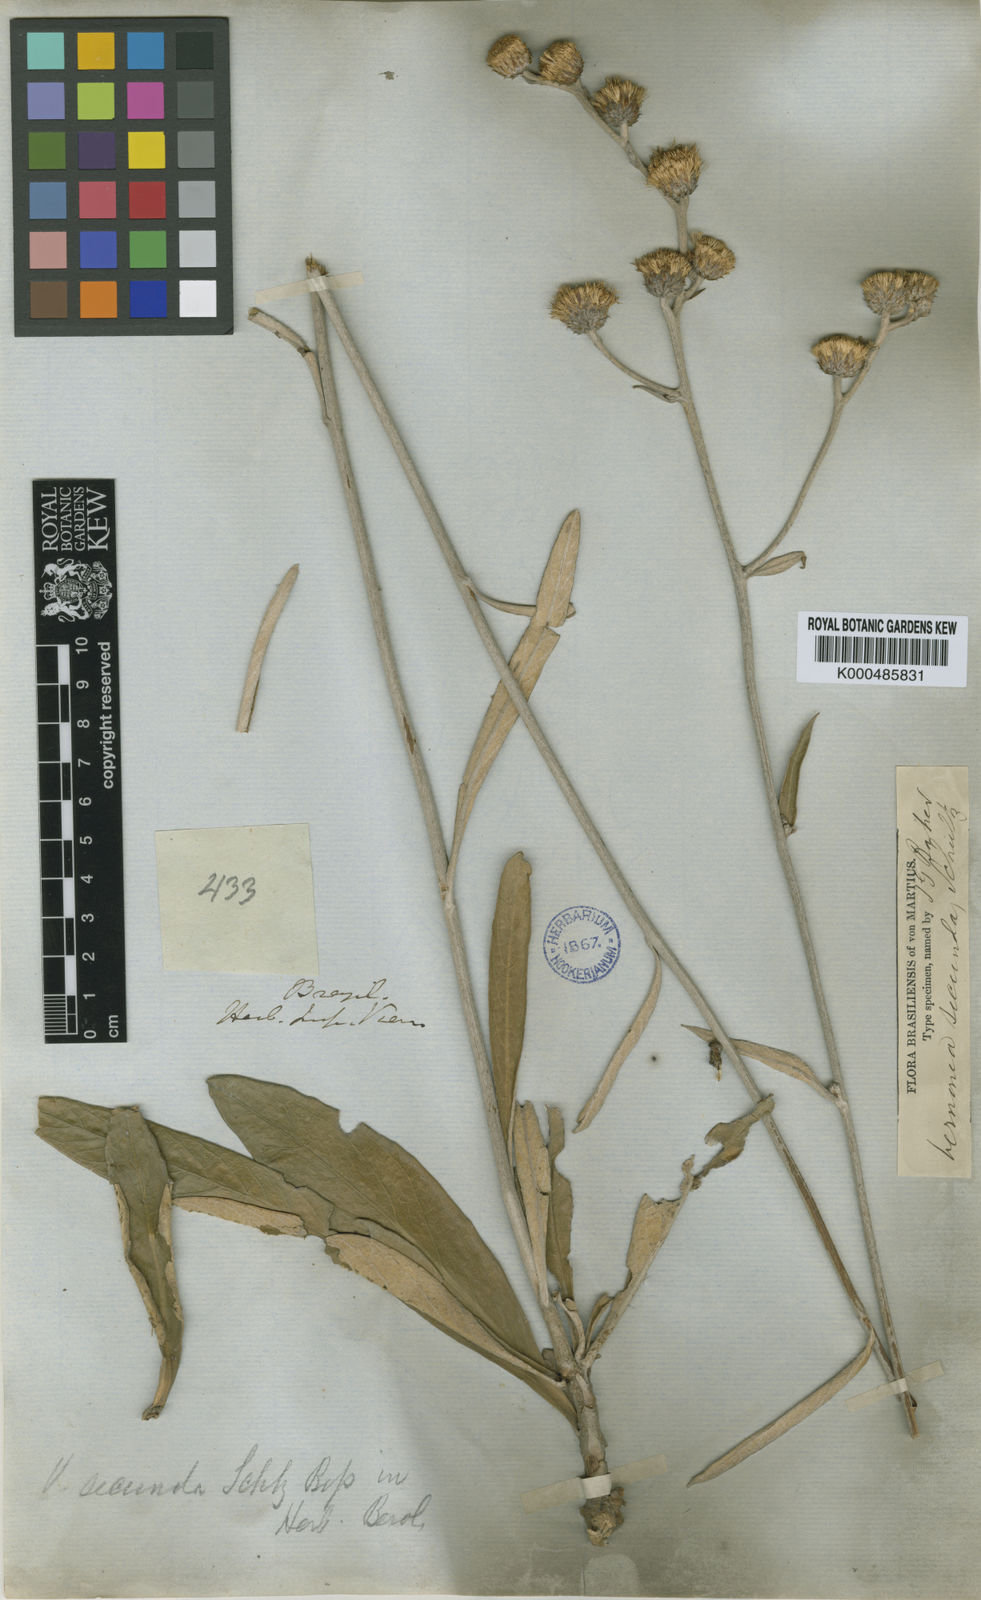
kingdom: Plantae
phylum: Tracheophyta
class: Magnoliopsida
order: Asterales
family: Asteraceae
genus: Lessingianthus
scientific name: Lessingianthus secundus
